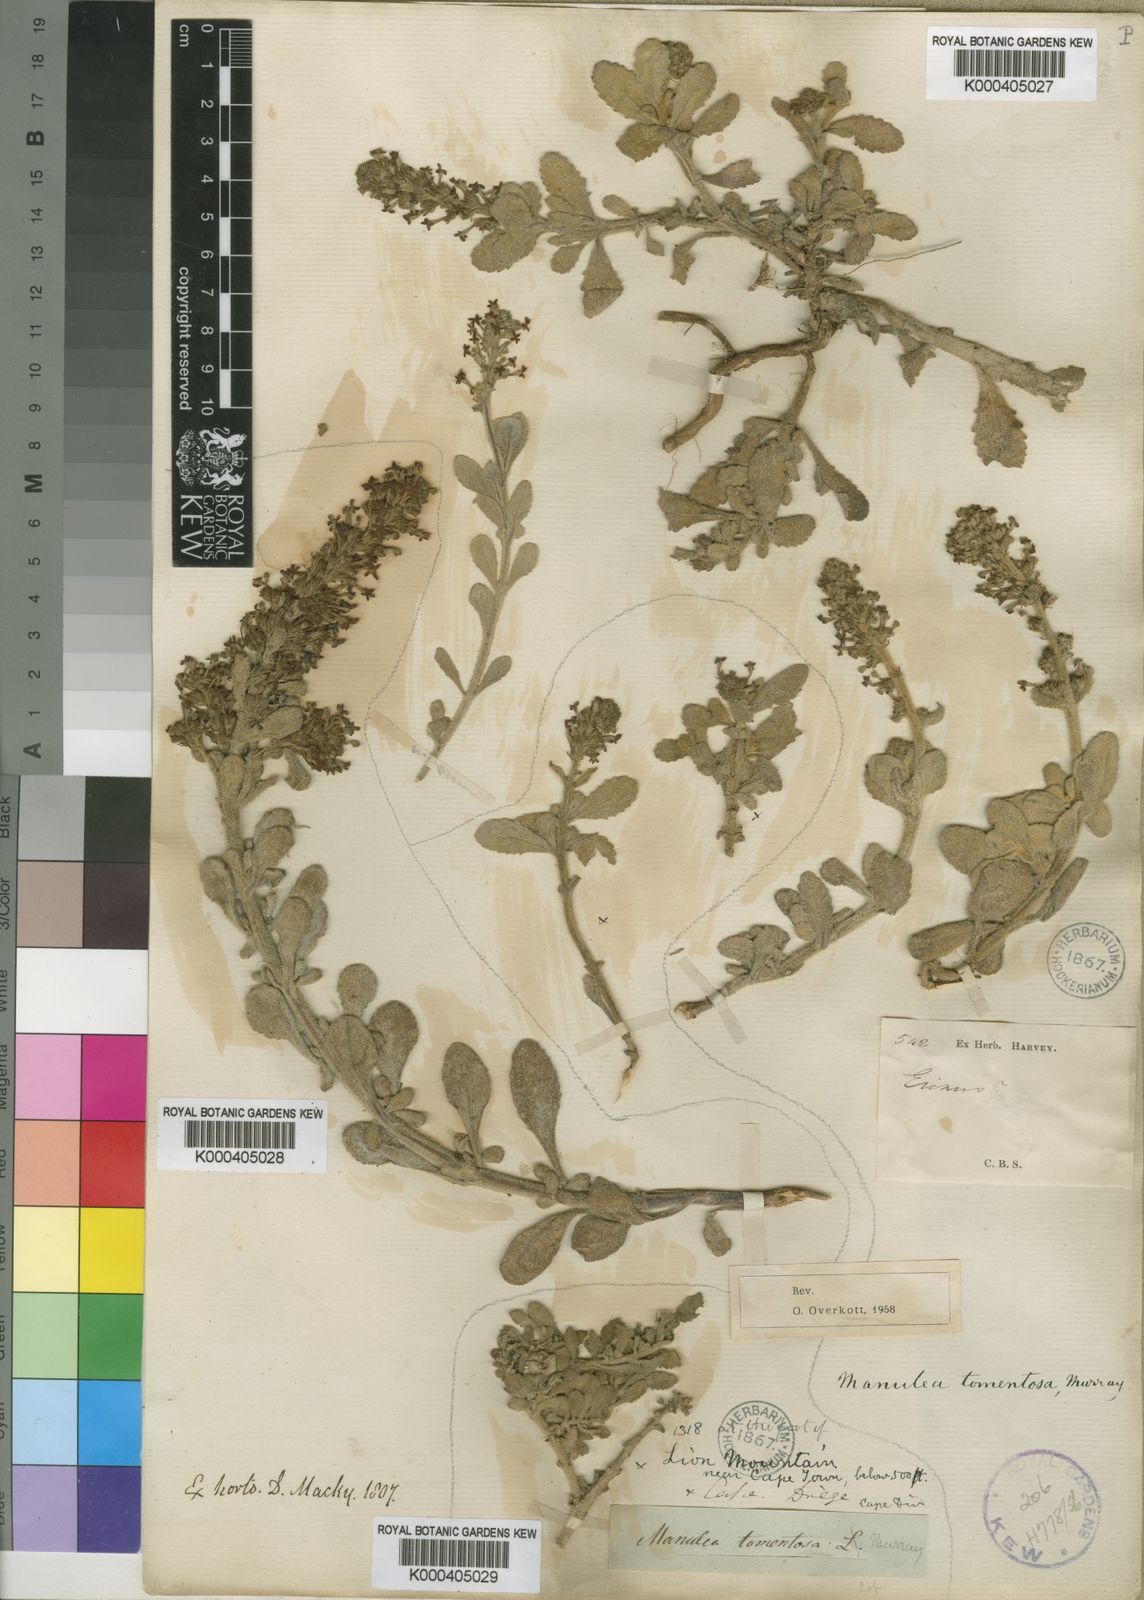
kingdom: Plantae
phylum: Tracheophyta
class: Magnoliopsida
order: Lamiales
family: Scrophulariaceae
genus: Manulea
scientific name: Manulea
